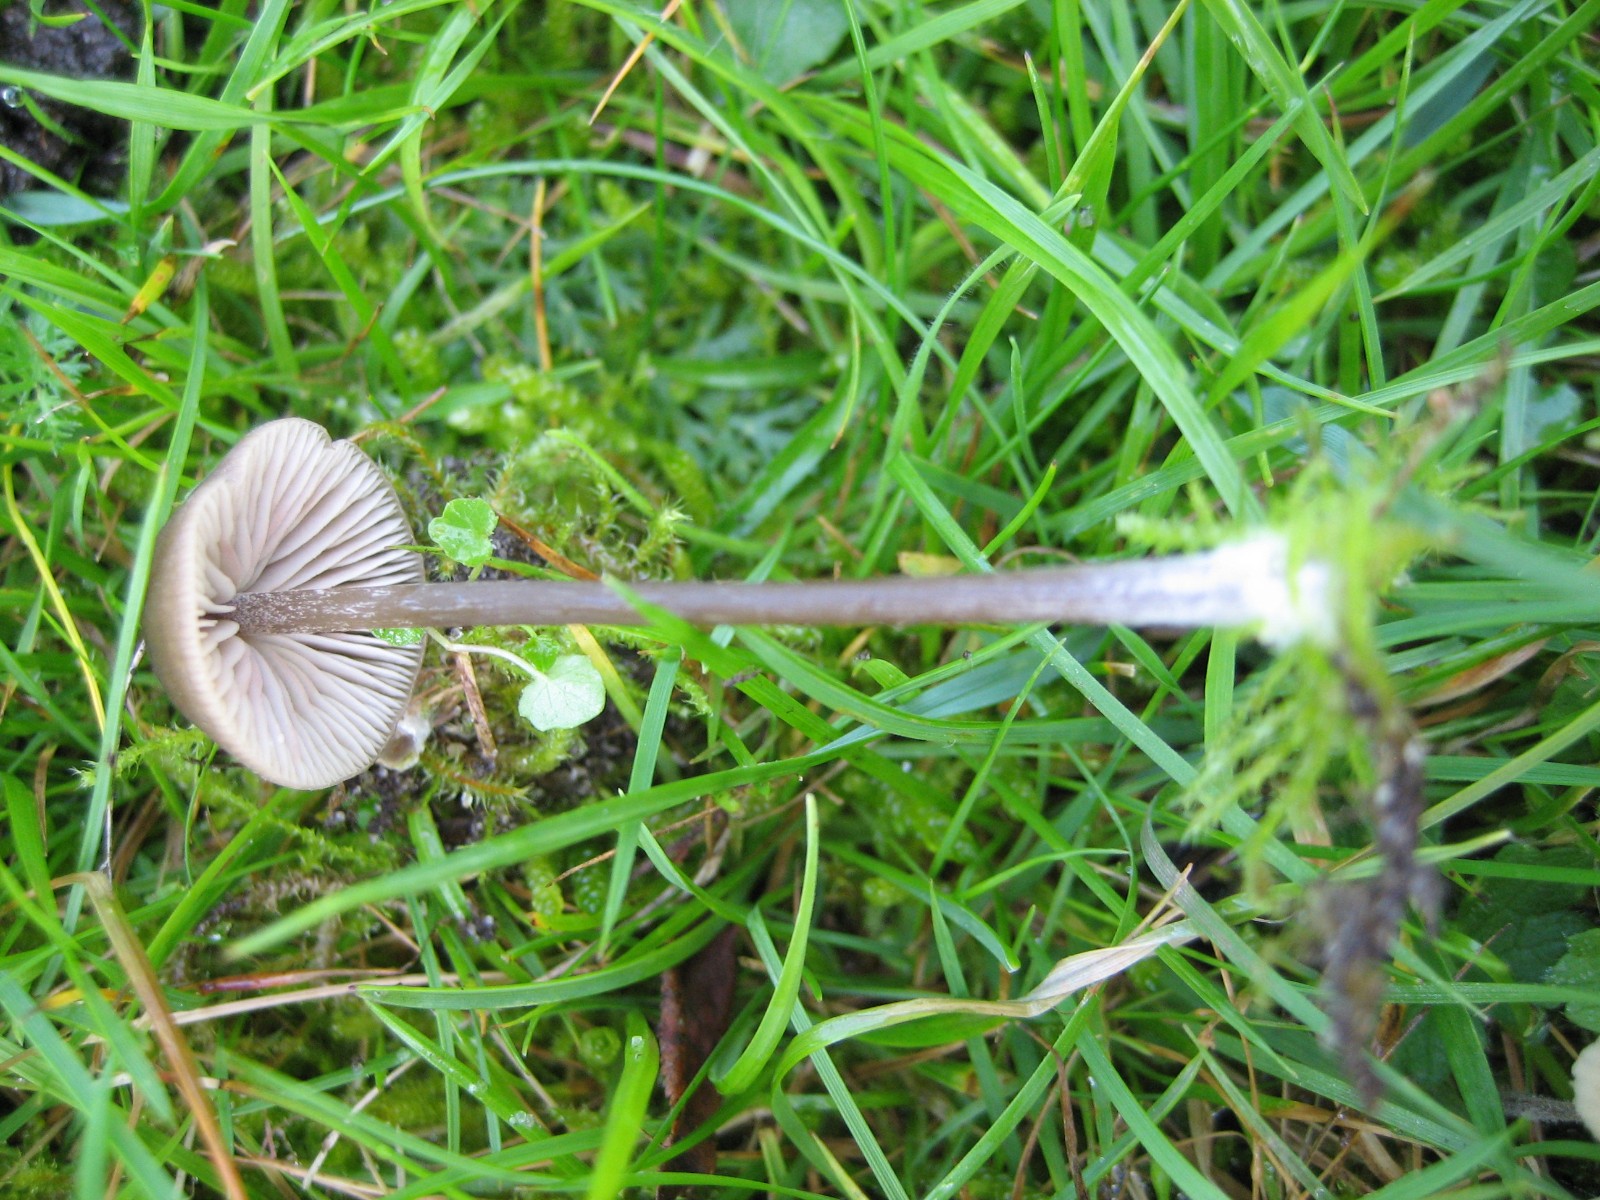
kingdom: Fungi
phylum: Basidiomycota
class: Agaricomycetes
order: Agaricales
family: Entolomataceae
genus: Entoloma
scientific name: Entoloma clandestinum
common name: tykbladet rødblad
